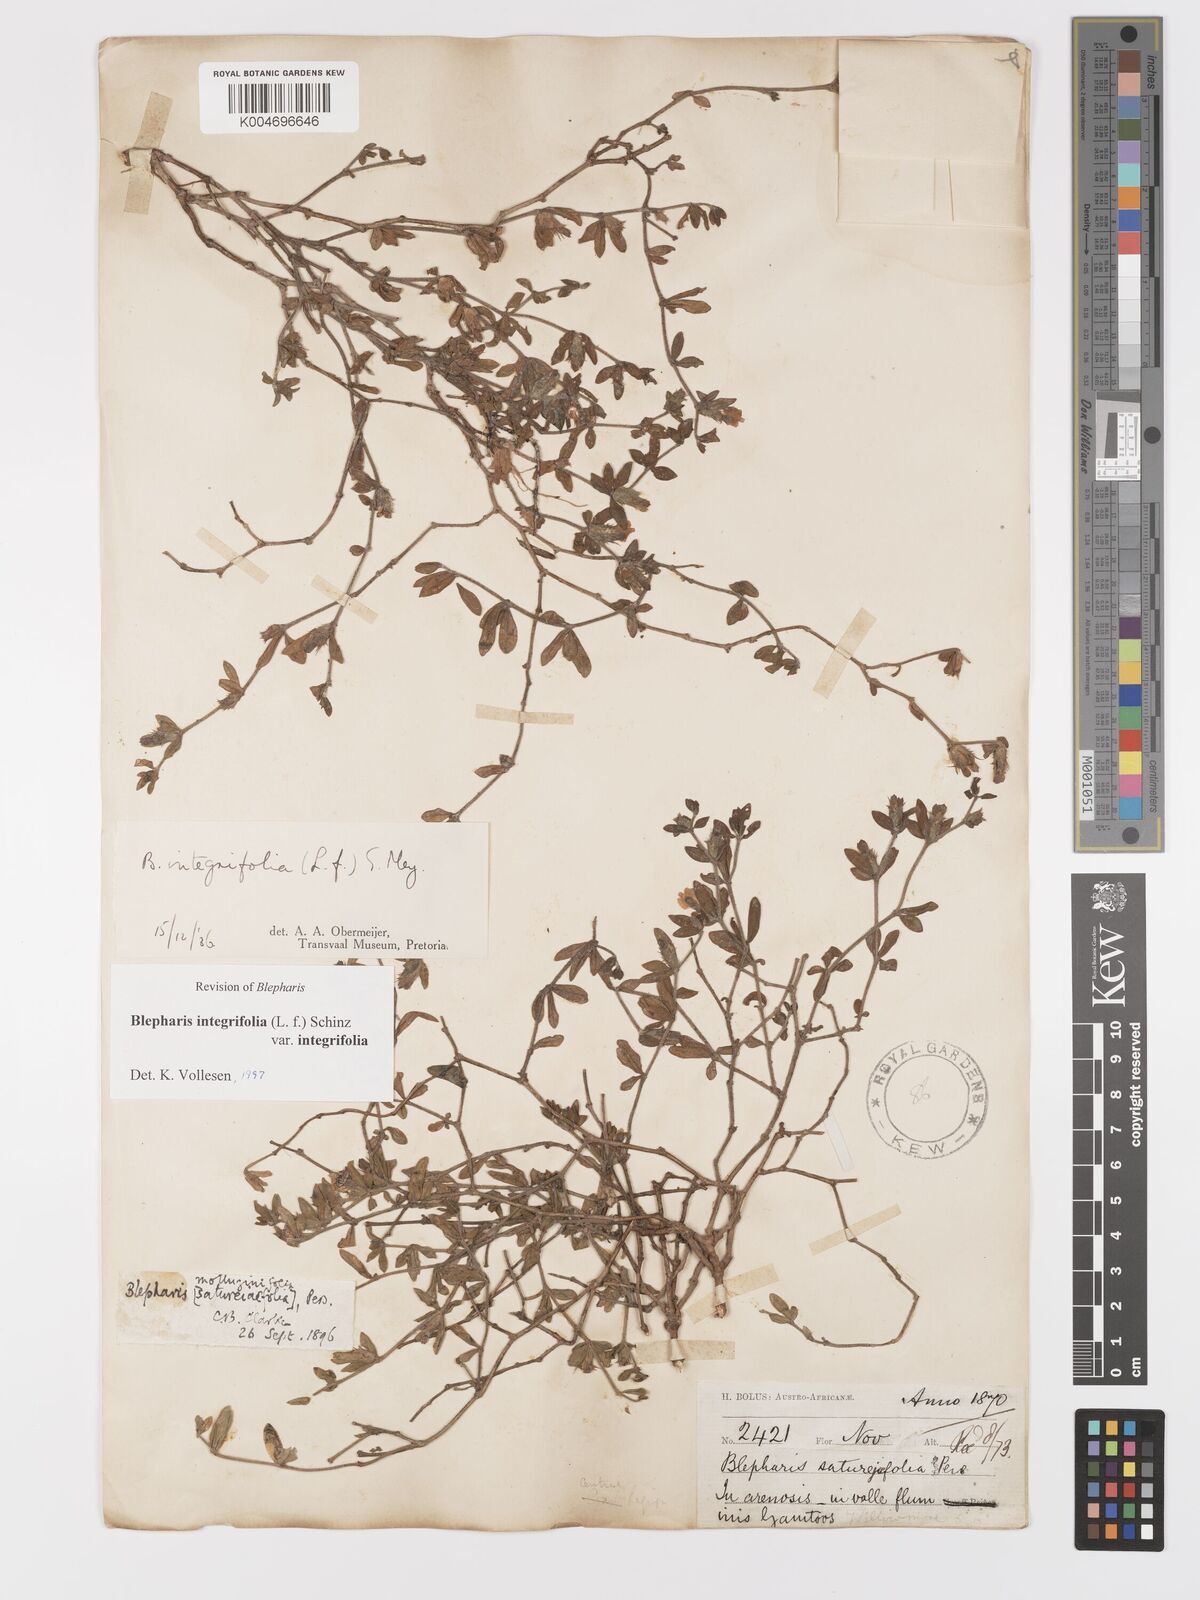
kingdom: Plantae
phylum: Tracheophyta
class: Magnoliopsida
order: Lamiales
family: Acanthaceae
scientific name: Acanthaceae
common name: Acanthaceae
